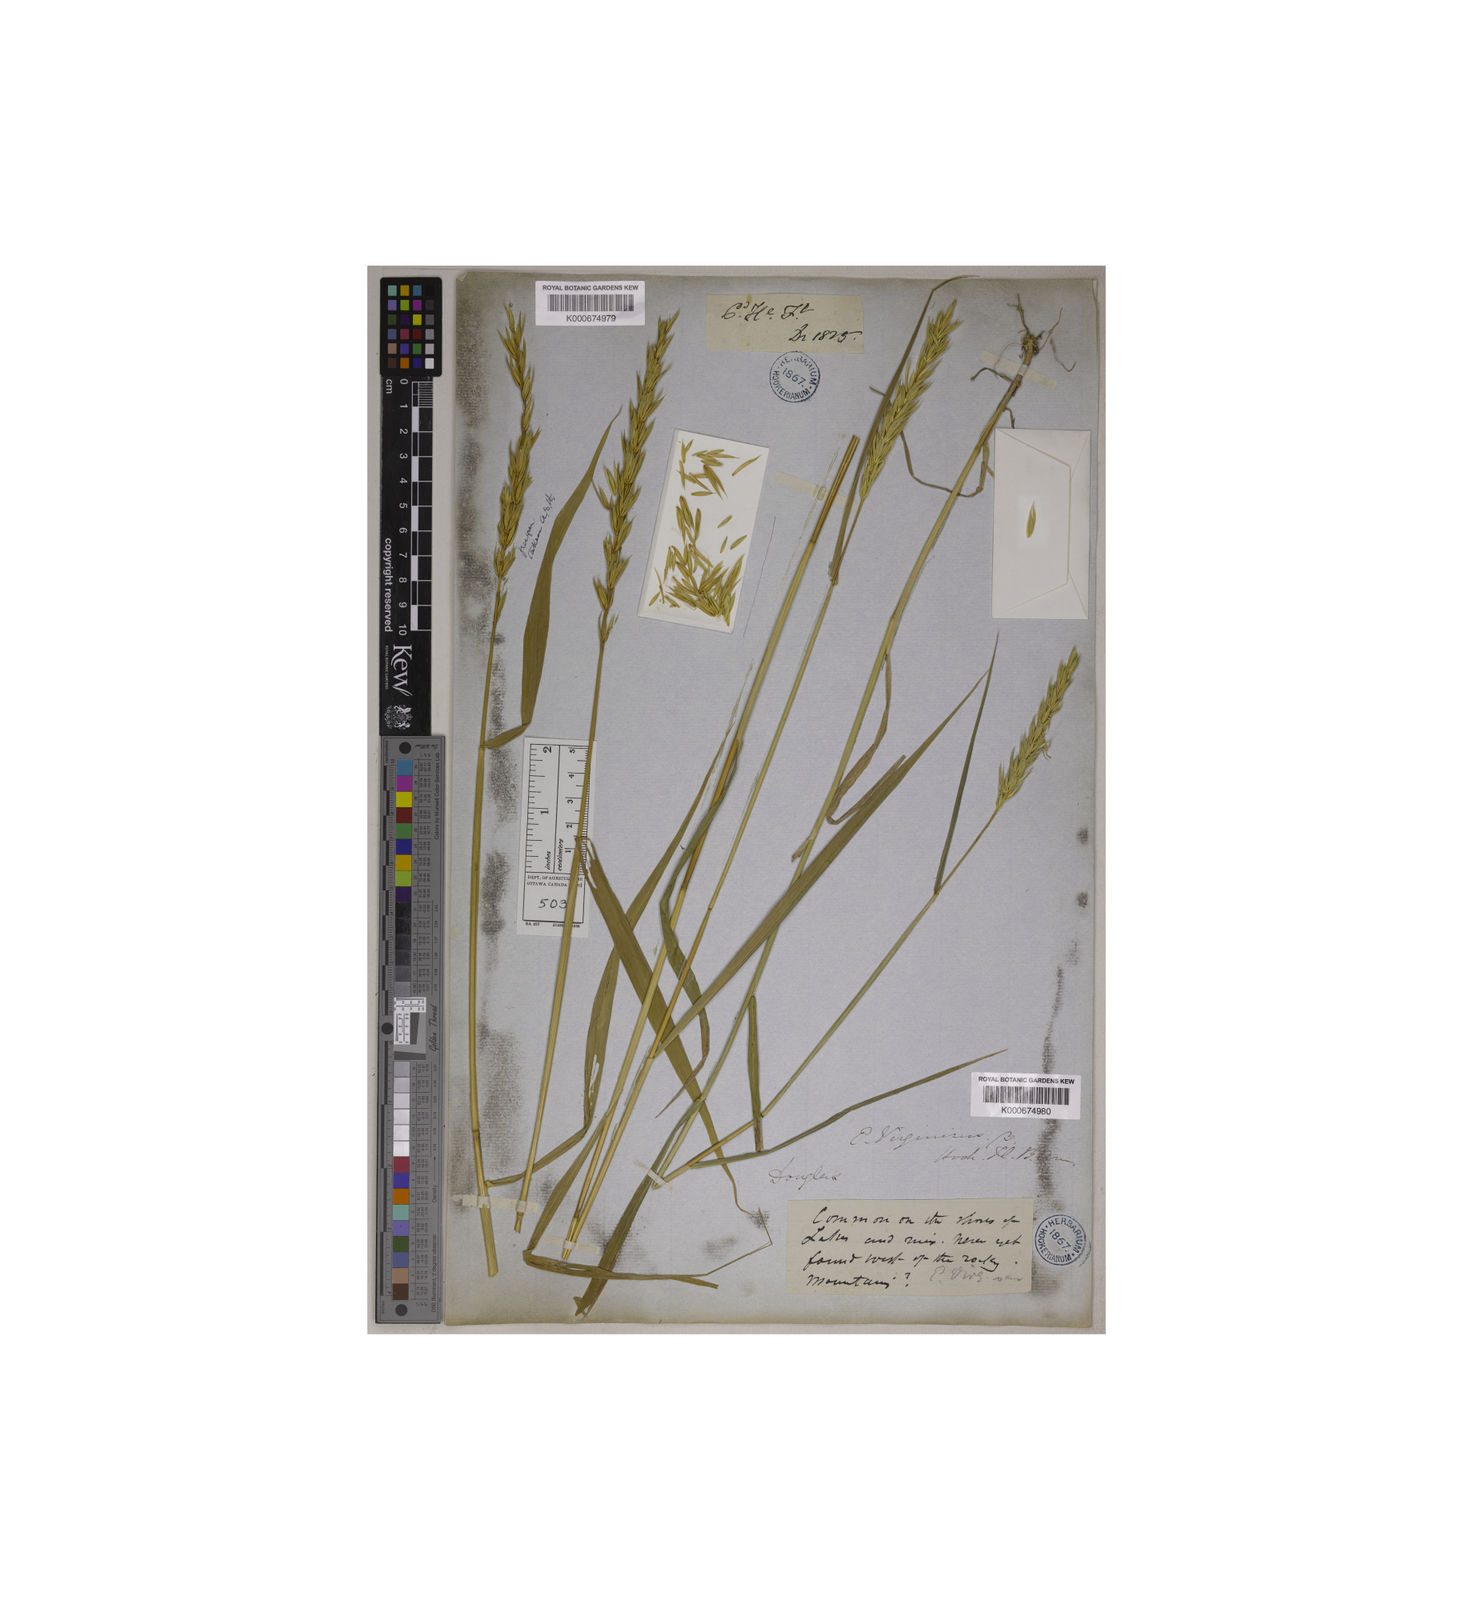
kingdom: Plantae
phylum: Tracheophyta
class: Liliopsida
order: Poales
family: Poaceae
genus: Elymus
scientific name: Elymus virginicus
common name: Common eastern wildrye
